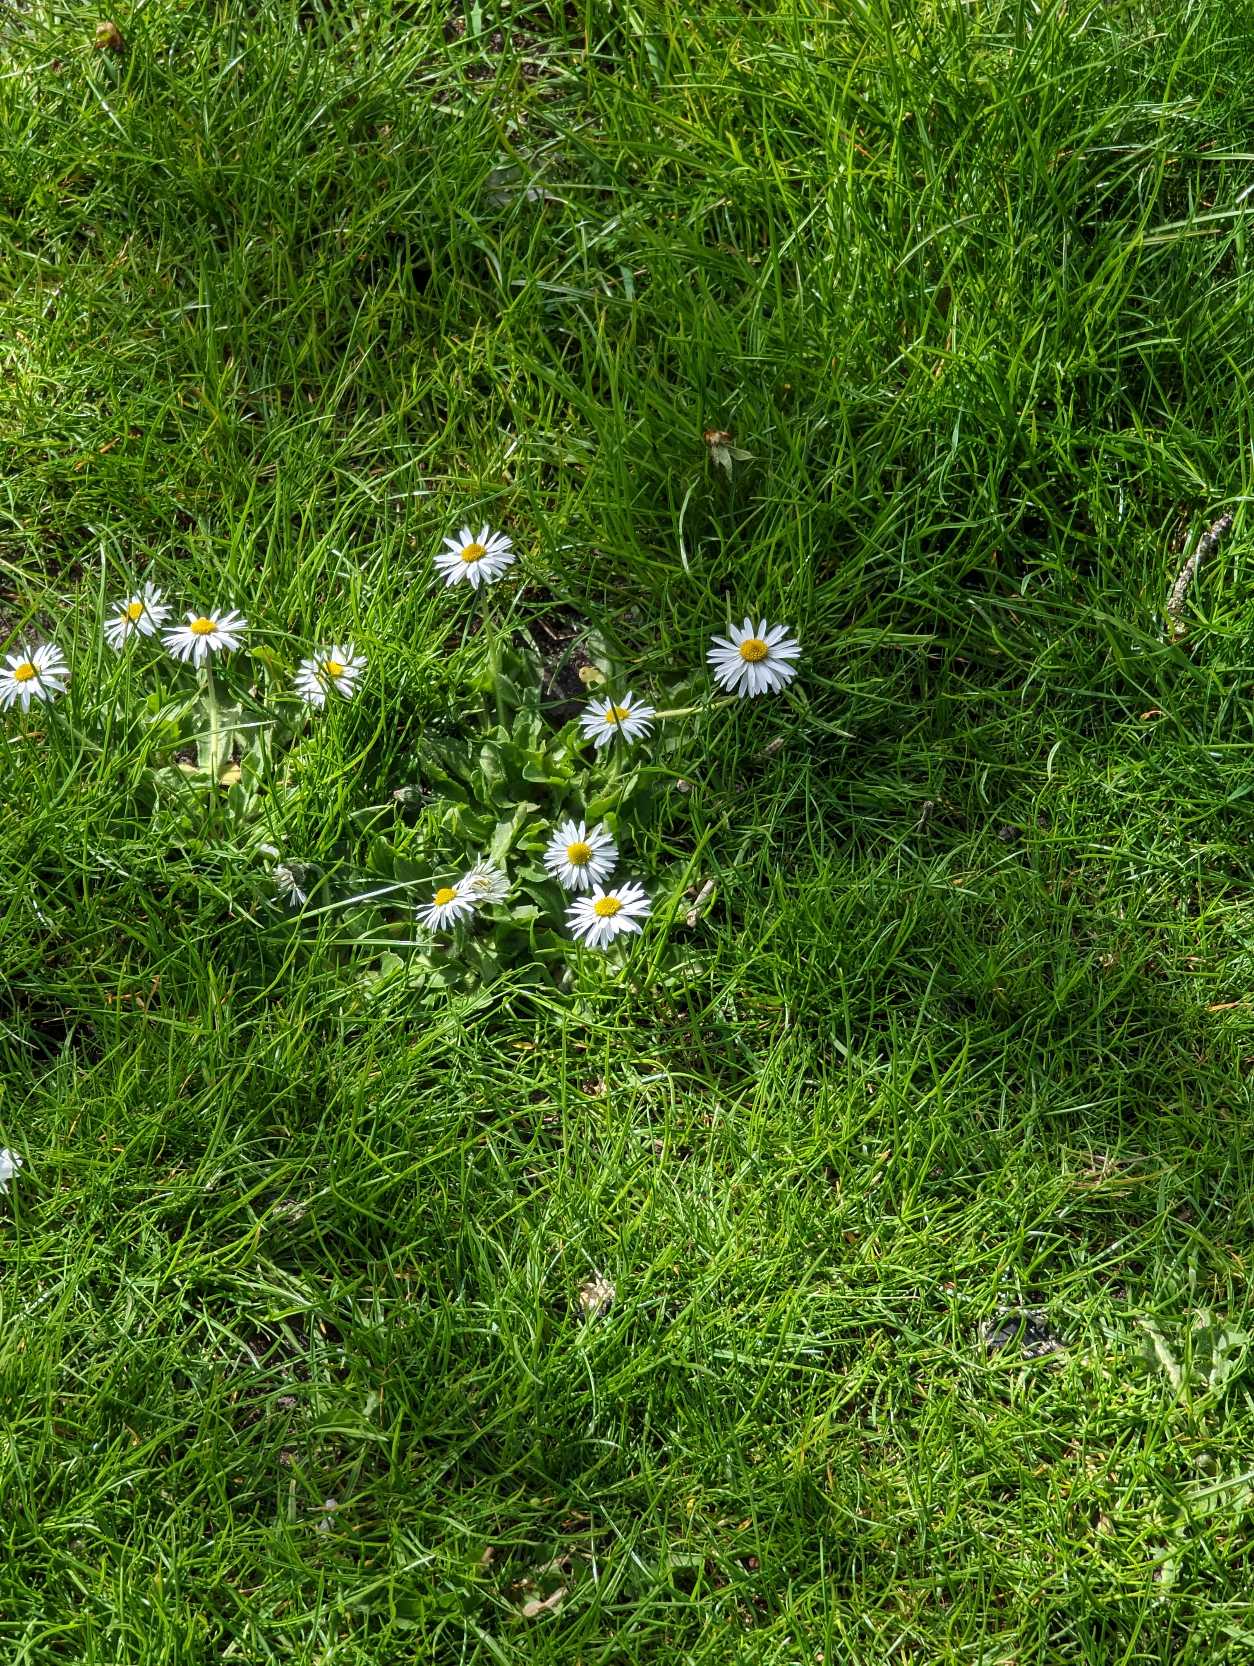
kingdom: Plantae
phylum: Tracheophyta
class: Magnoliopsida
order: Asterales
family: Asteraceae
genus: Bellis
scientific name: Bellis perennis
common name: Tusindfryd
